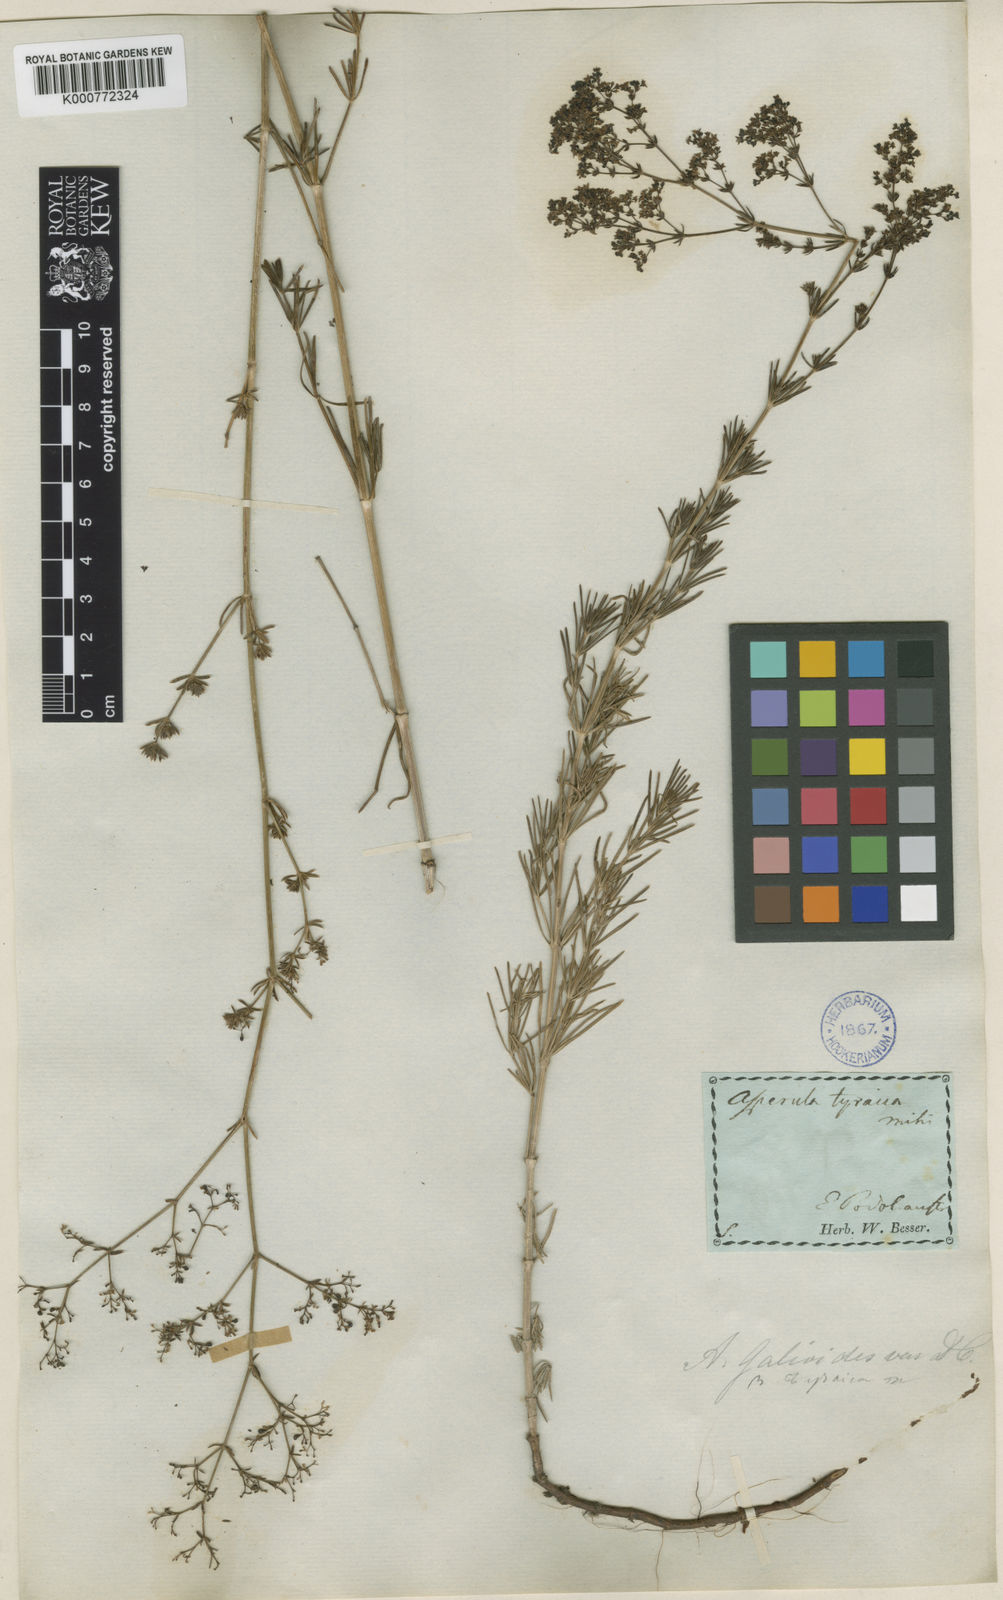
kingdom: Plantae
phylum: Tracheophyta
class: Magnoliopsida
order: Gentianales
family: Rubiaceae
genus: Galium
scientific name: Galium volhynicum
